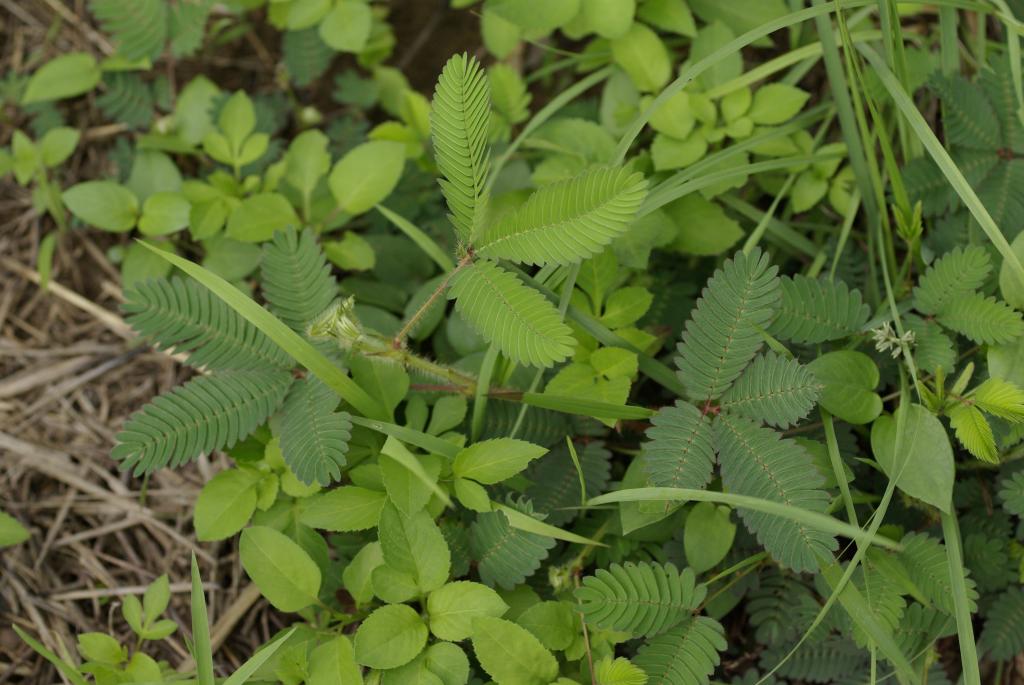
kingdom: Plantae
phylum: Tracheophyta
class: Magnoliopsida
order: Fabales
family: Fabaceae
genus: Mimosa
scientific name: Mimosa pudica
